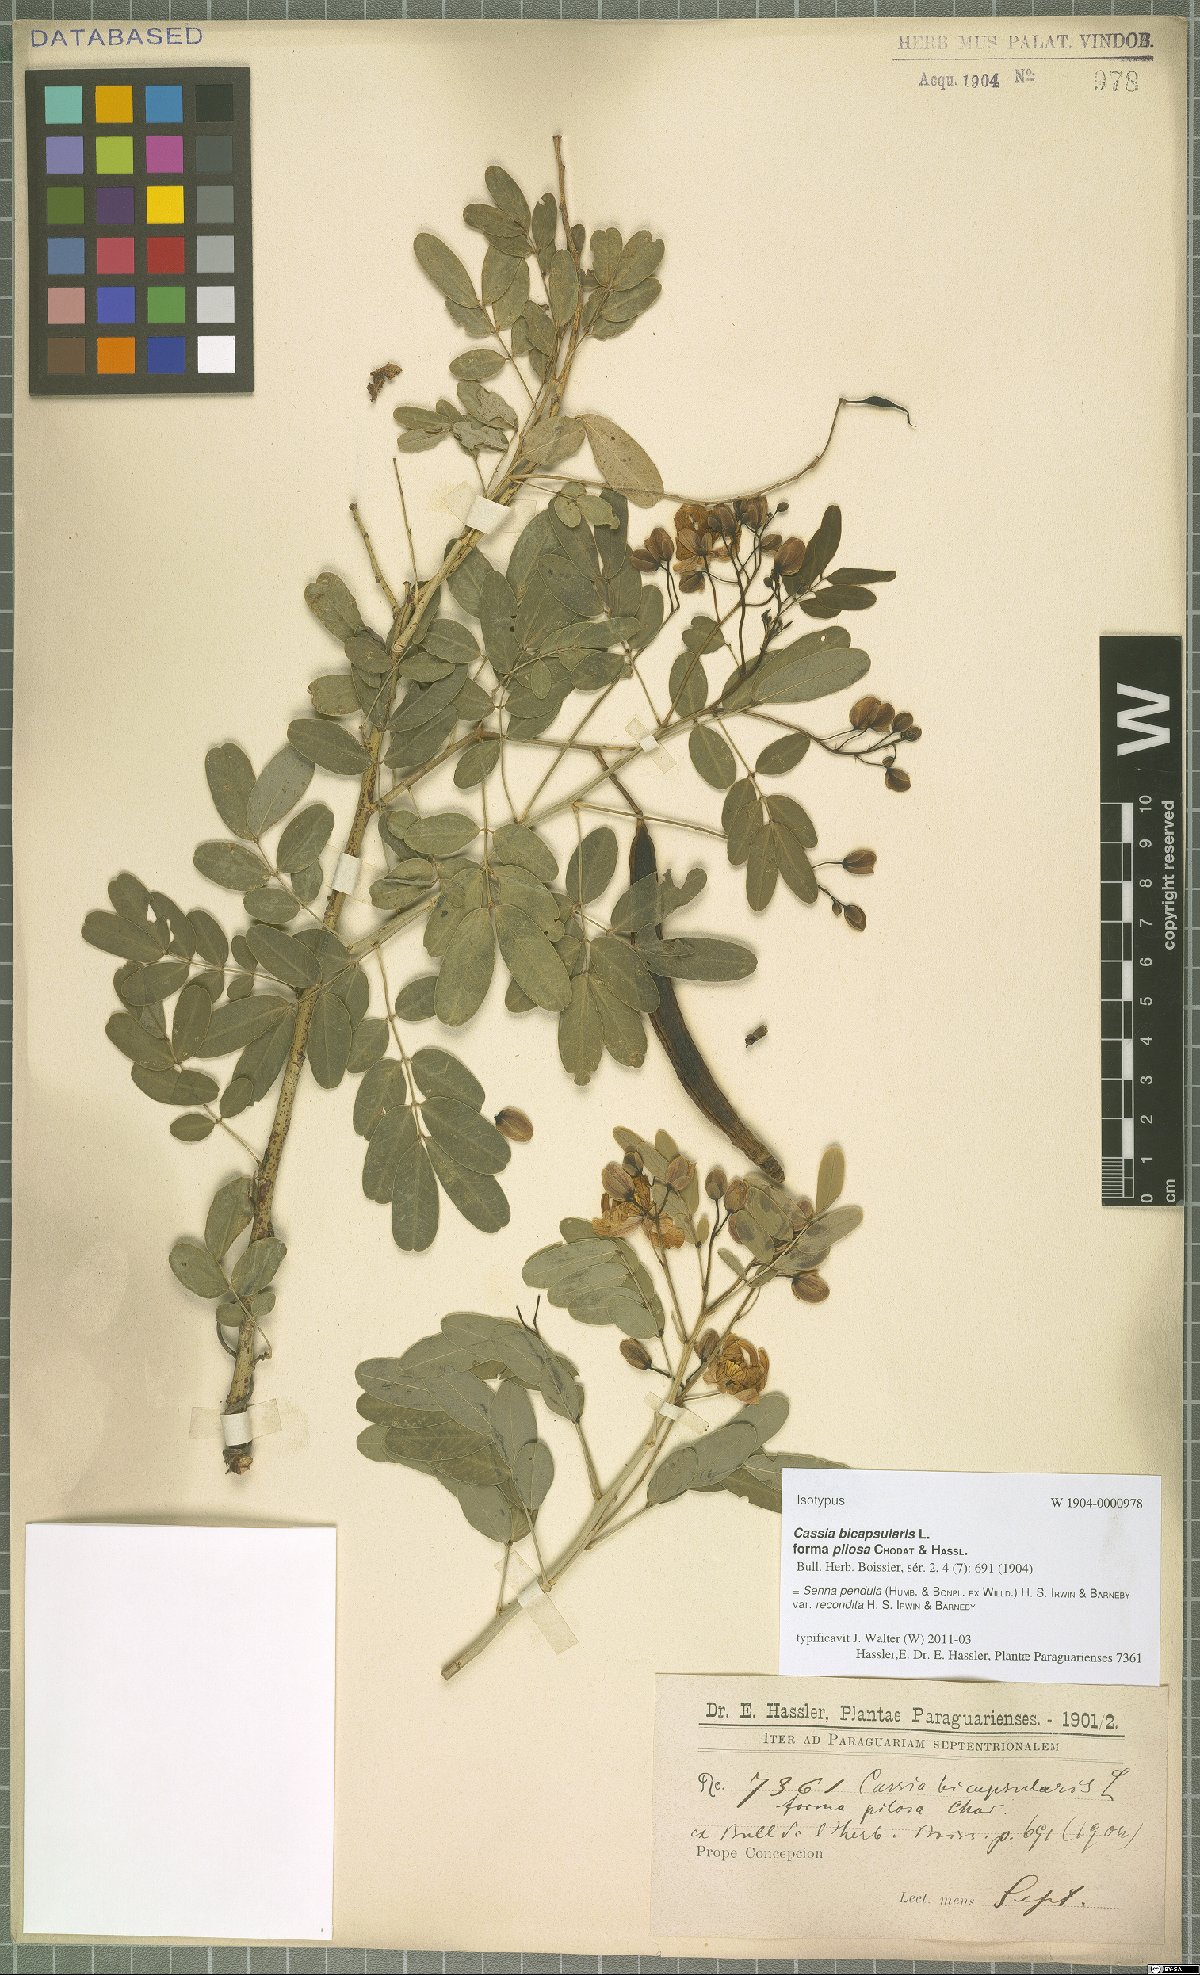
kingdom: Plantae
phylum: Tracheophyta
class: Magnoliopsida
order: Fabales
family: Fabaceae
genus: Senna
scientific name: Senna pendula
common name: Easter cassia
